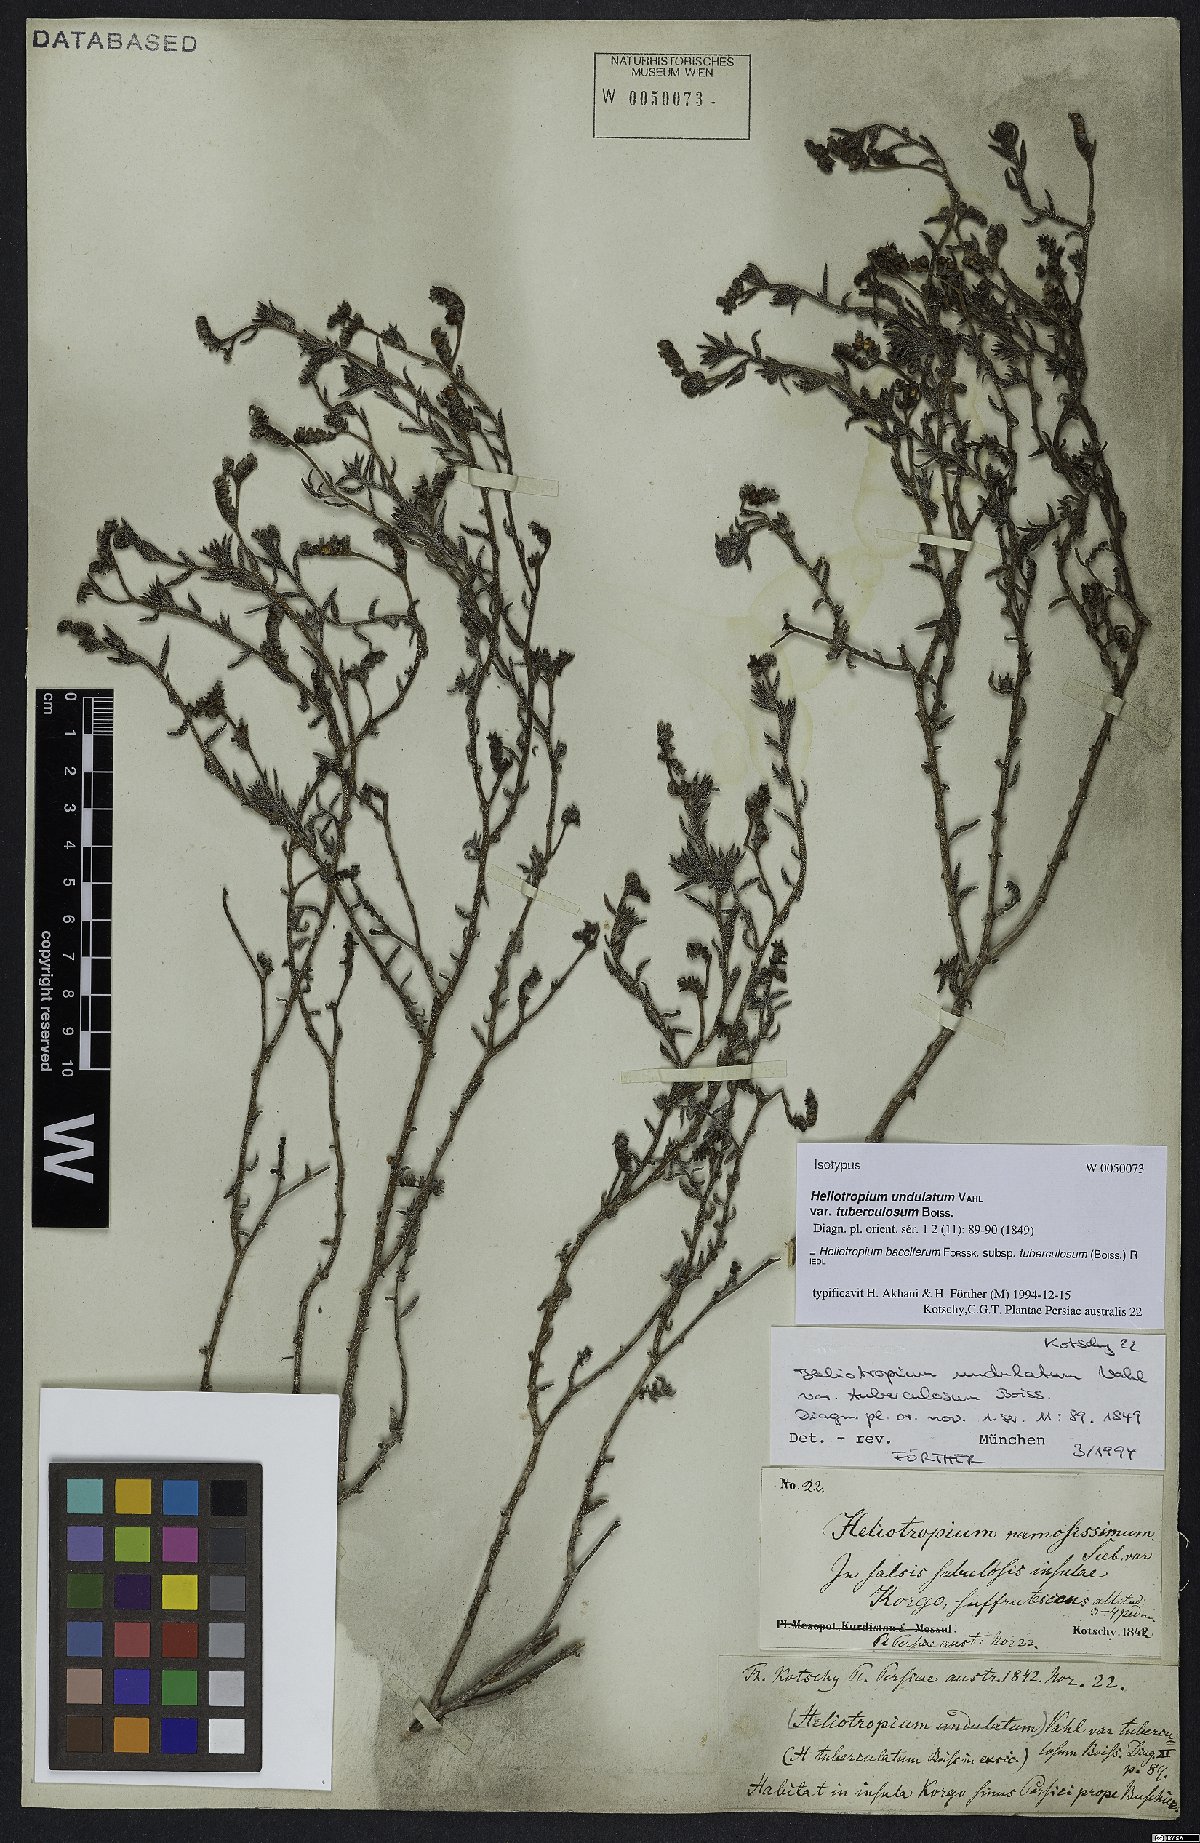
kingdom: Plantae
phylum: Tracheophyta
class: Magnoliopsida
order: Boraginales
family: Heliotropiaceae
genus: Heliotropium
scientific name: Heliotropium bacciferum
